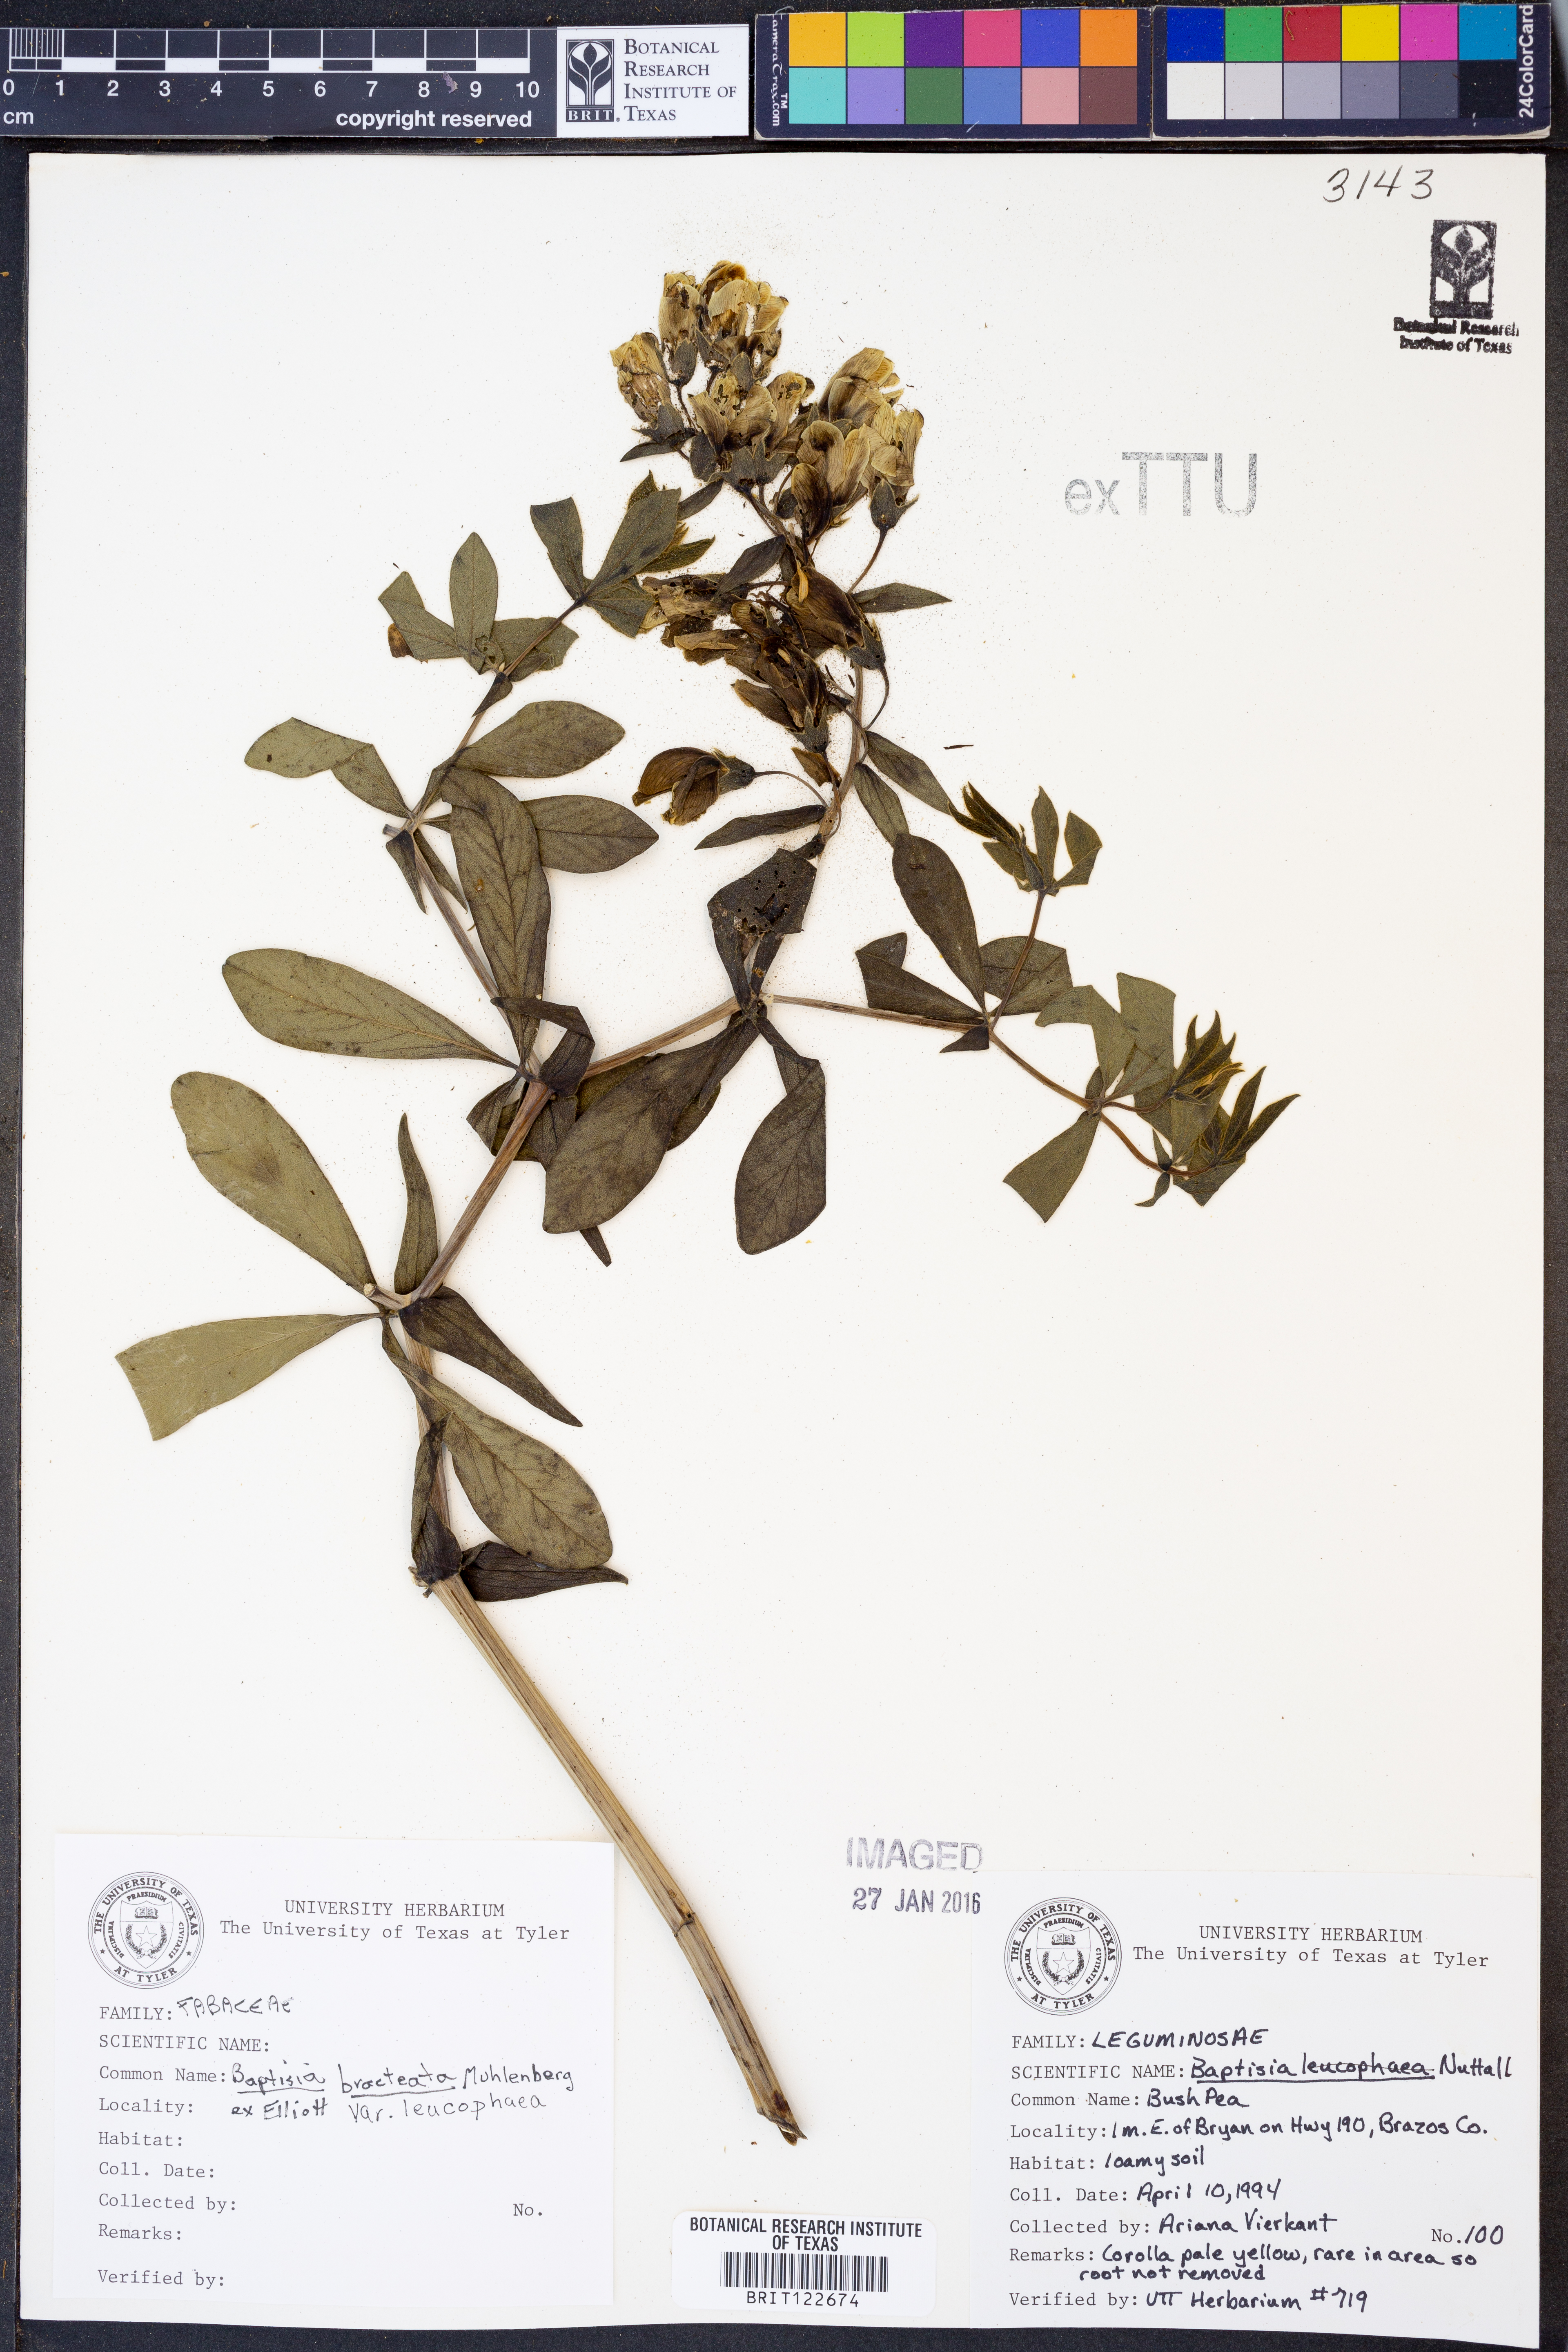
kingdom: Plantae
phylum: Tracheophyta
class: Magnoliopsida
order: Fabales
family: Fabaceae
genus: Baptisia
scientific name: Baptisia bracteata
